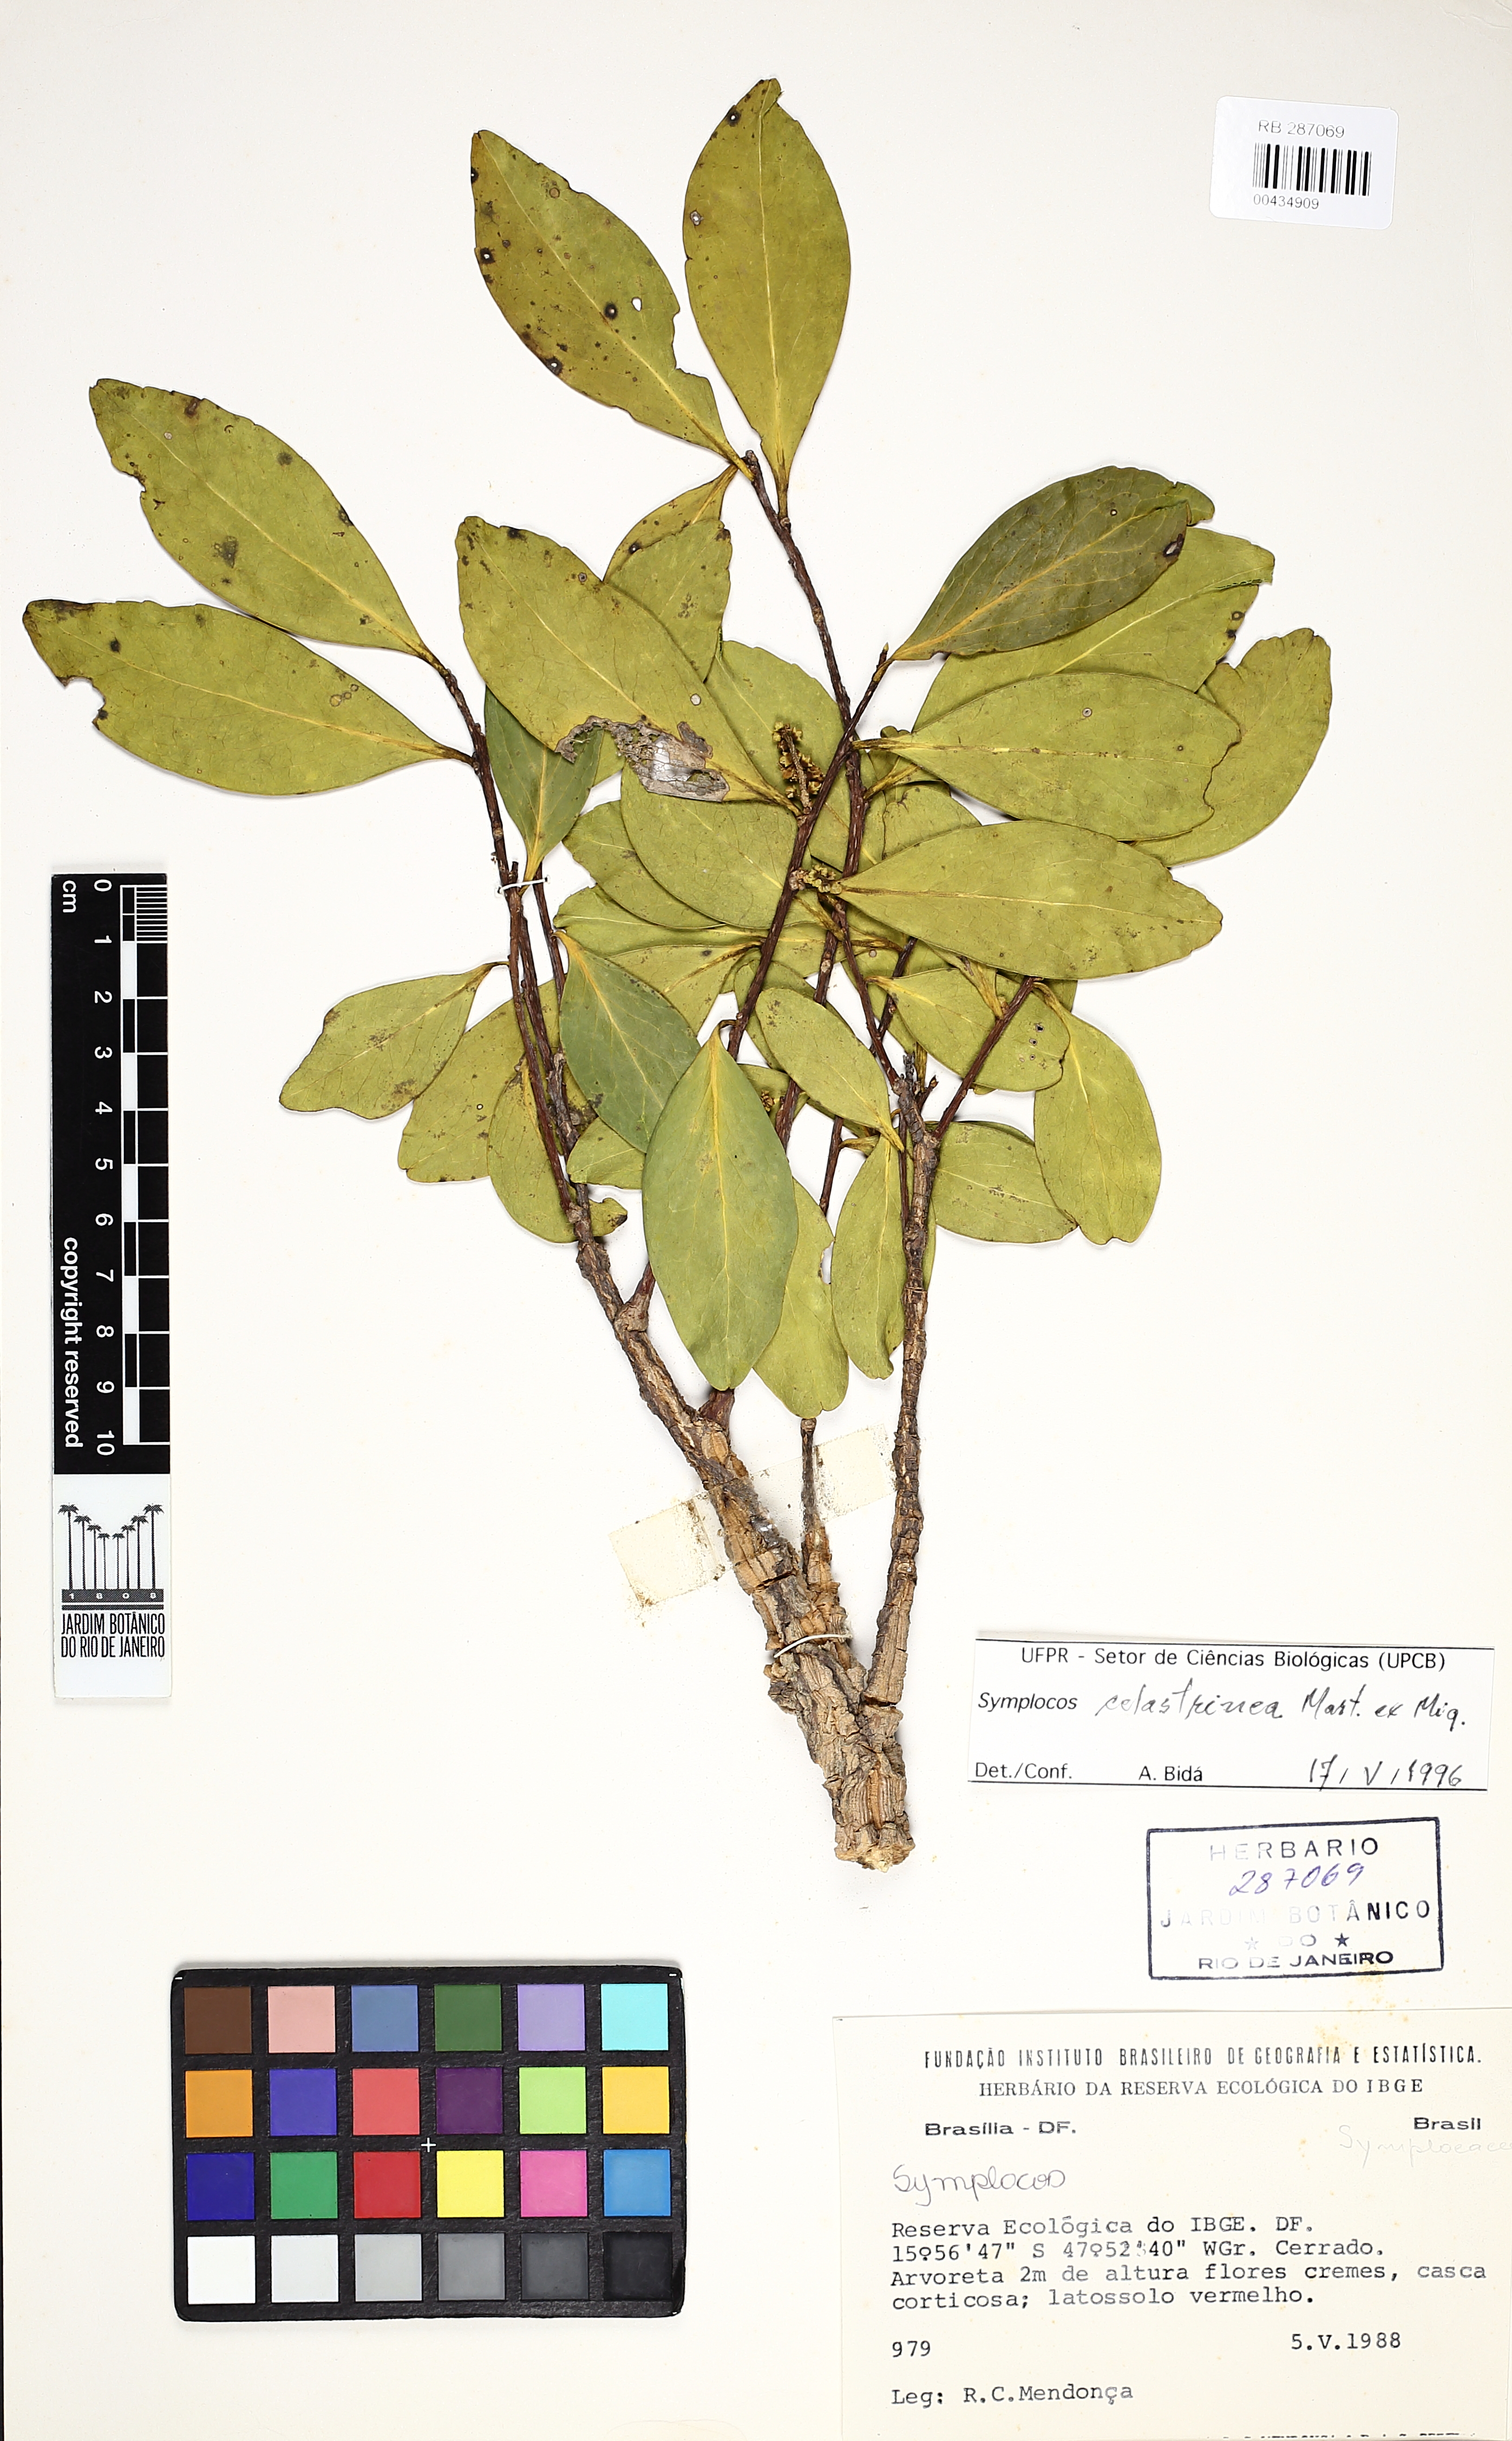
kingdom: Plantae
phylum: Tracheophyta
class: Magnoliopsida
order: Ericales
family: Symplocaceae
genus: Symplocos
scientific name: Symplocos celastrinea
